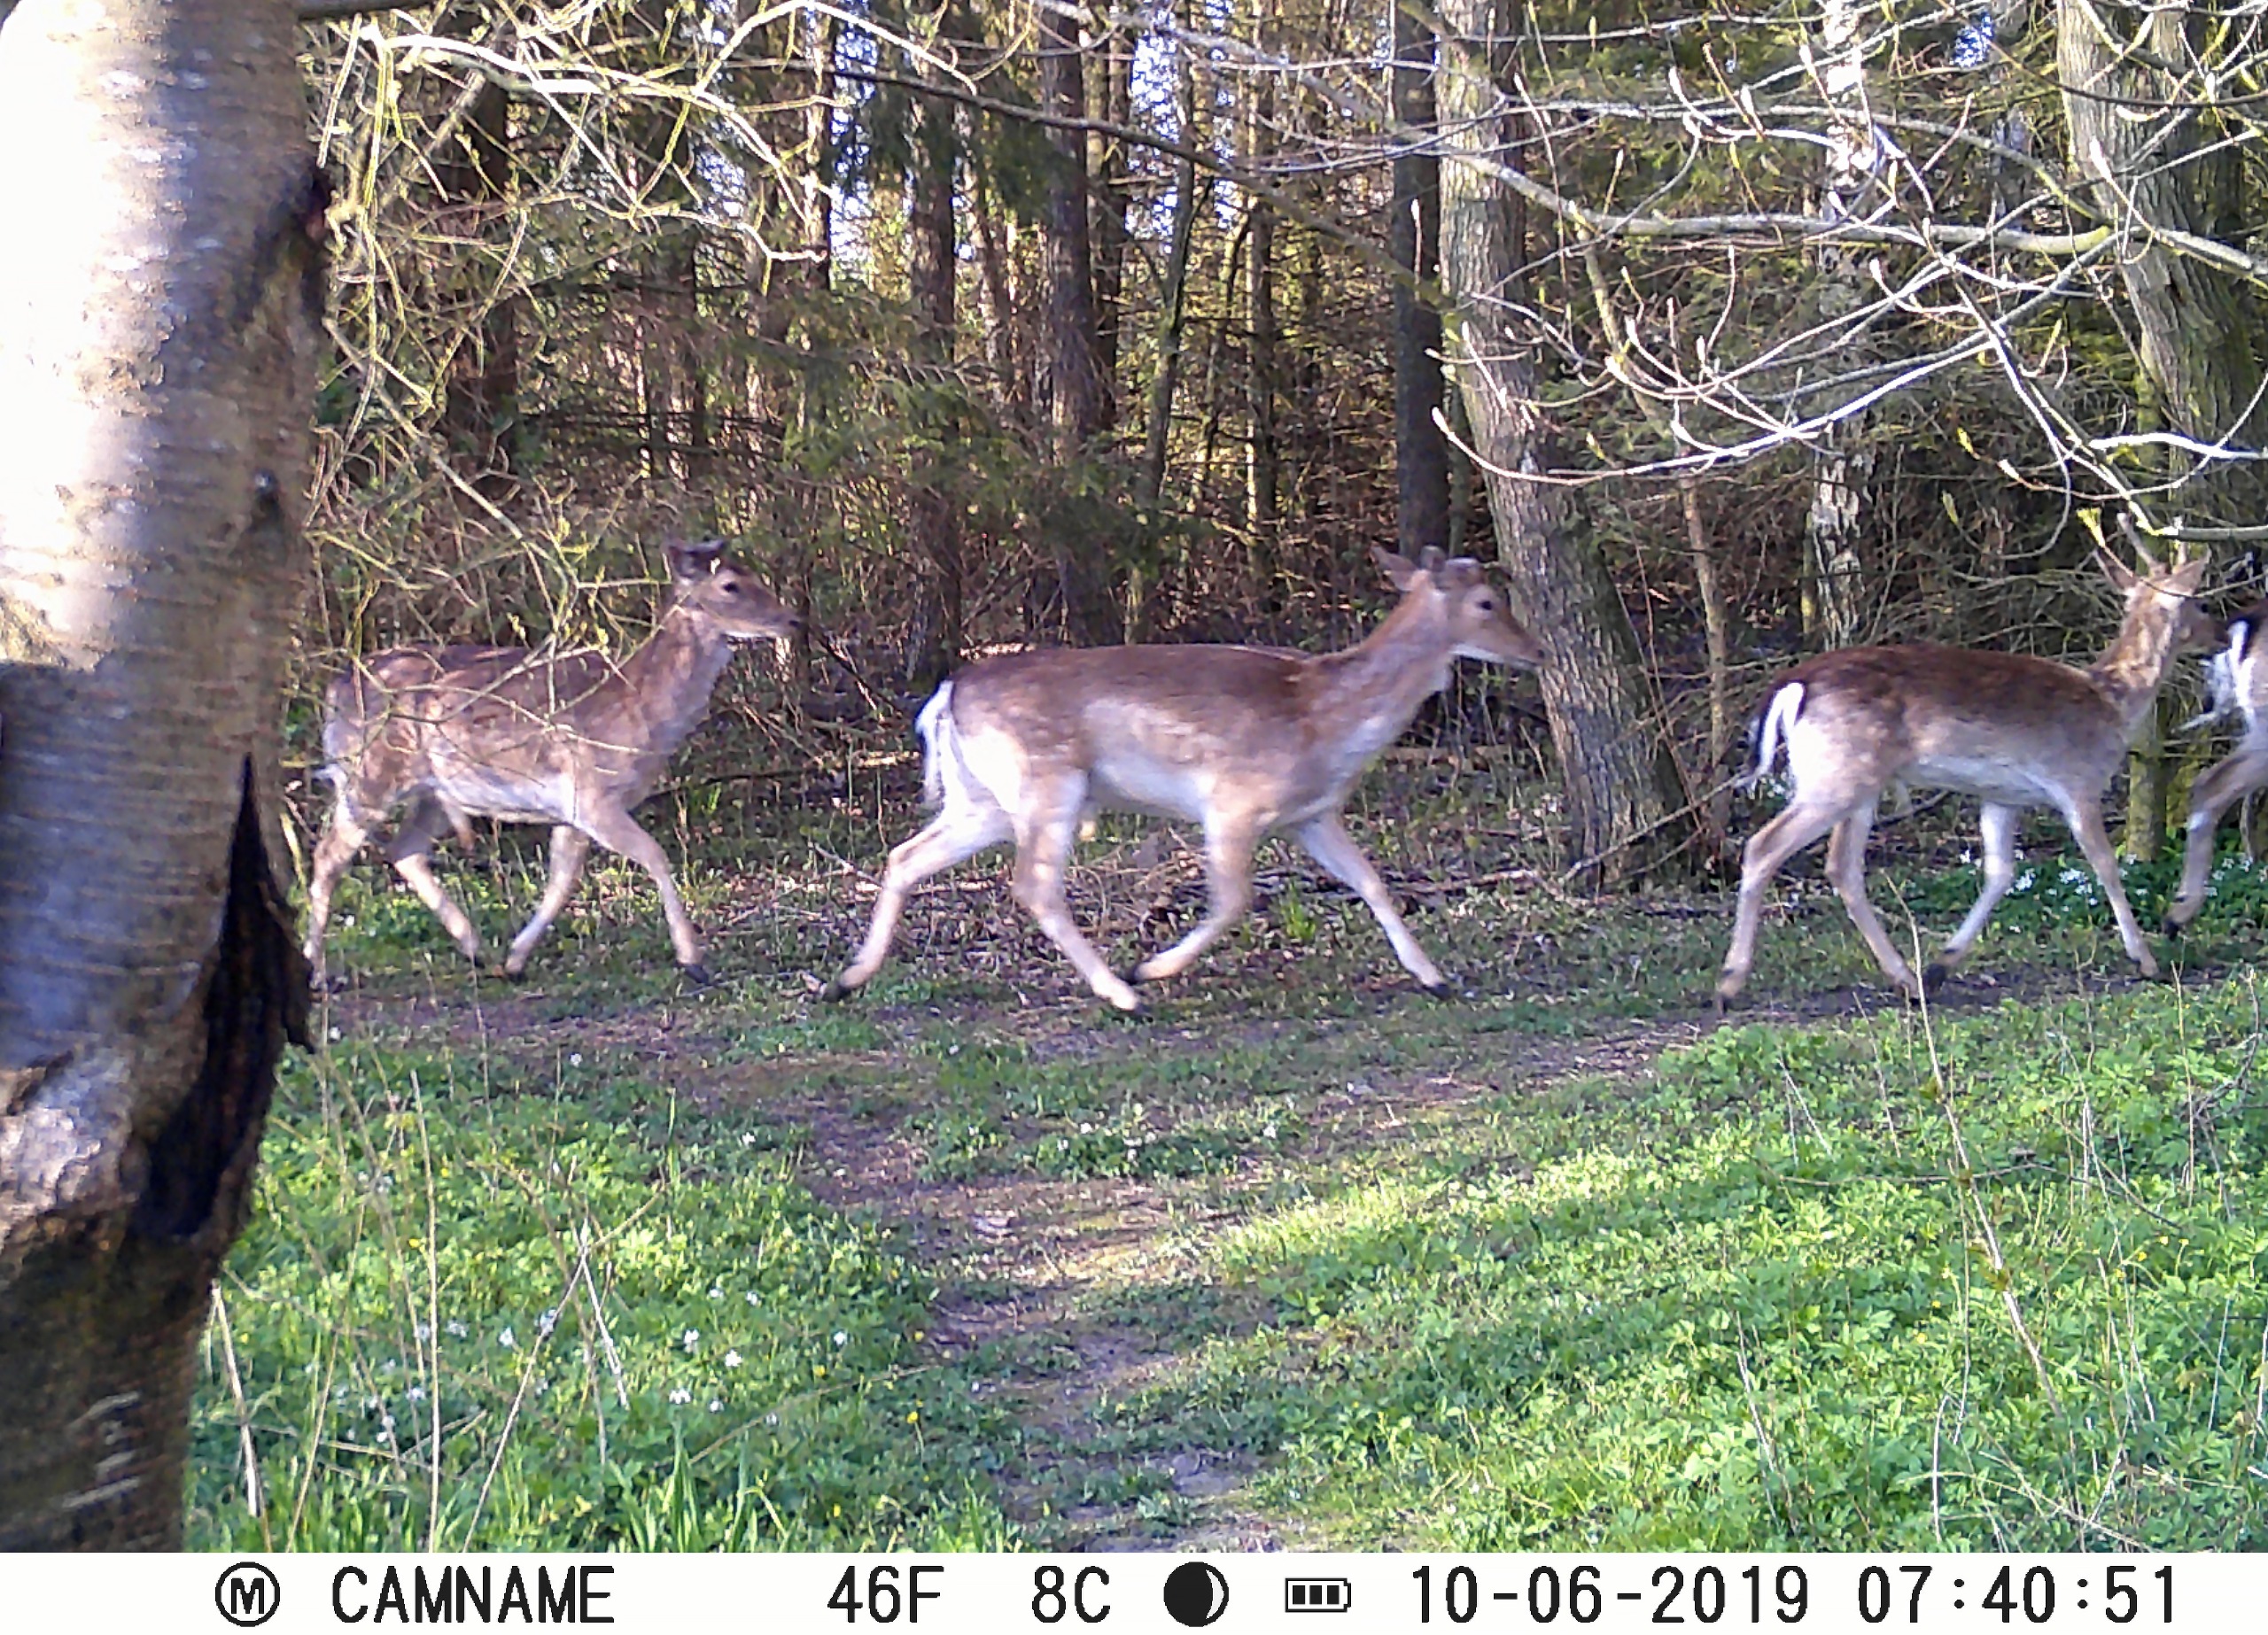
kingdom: Animalia
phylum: Chordata
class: Mammalia
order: Artiodactyla
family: Cervidae
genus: Dama
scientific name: Dama dama
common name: Dådyr
